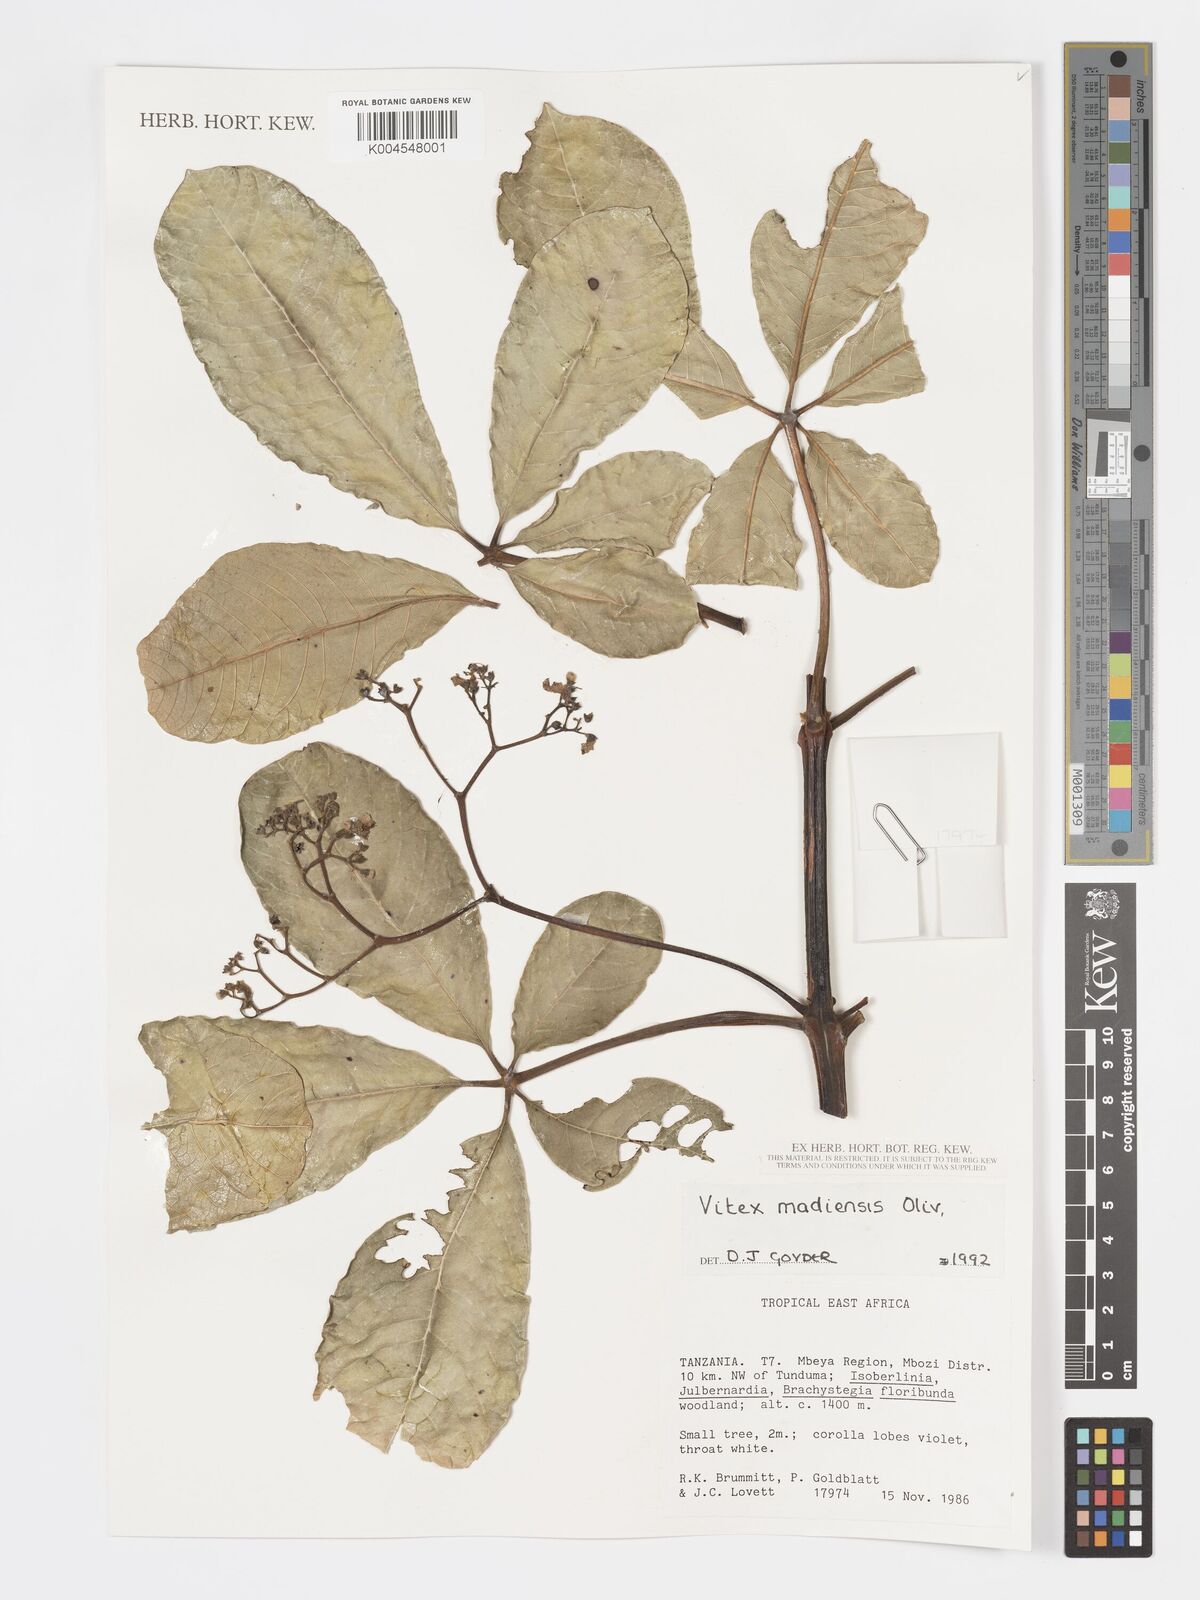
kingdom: Plantae
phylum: Tracheophyta
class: Magnoliopsida
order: Lamiales
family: Lamiaceae
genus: Vitex
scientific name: Vitex madiensis
